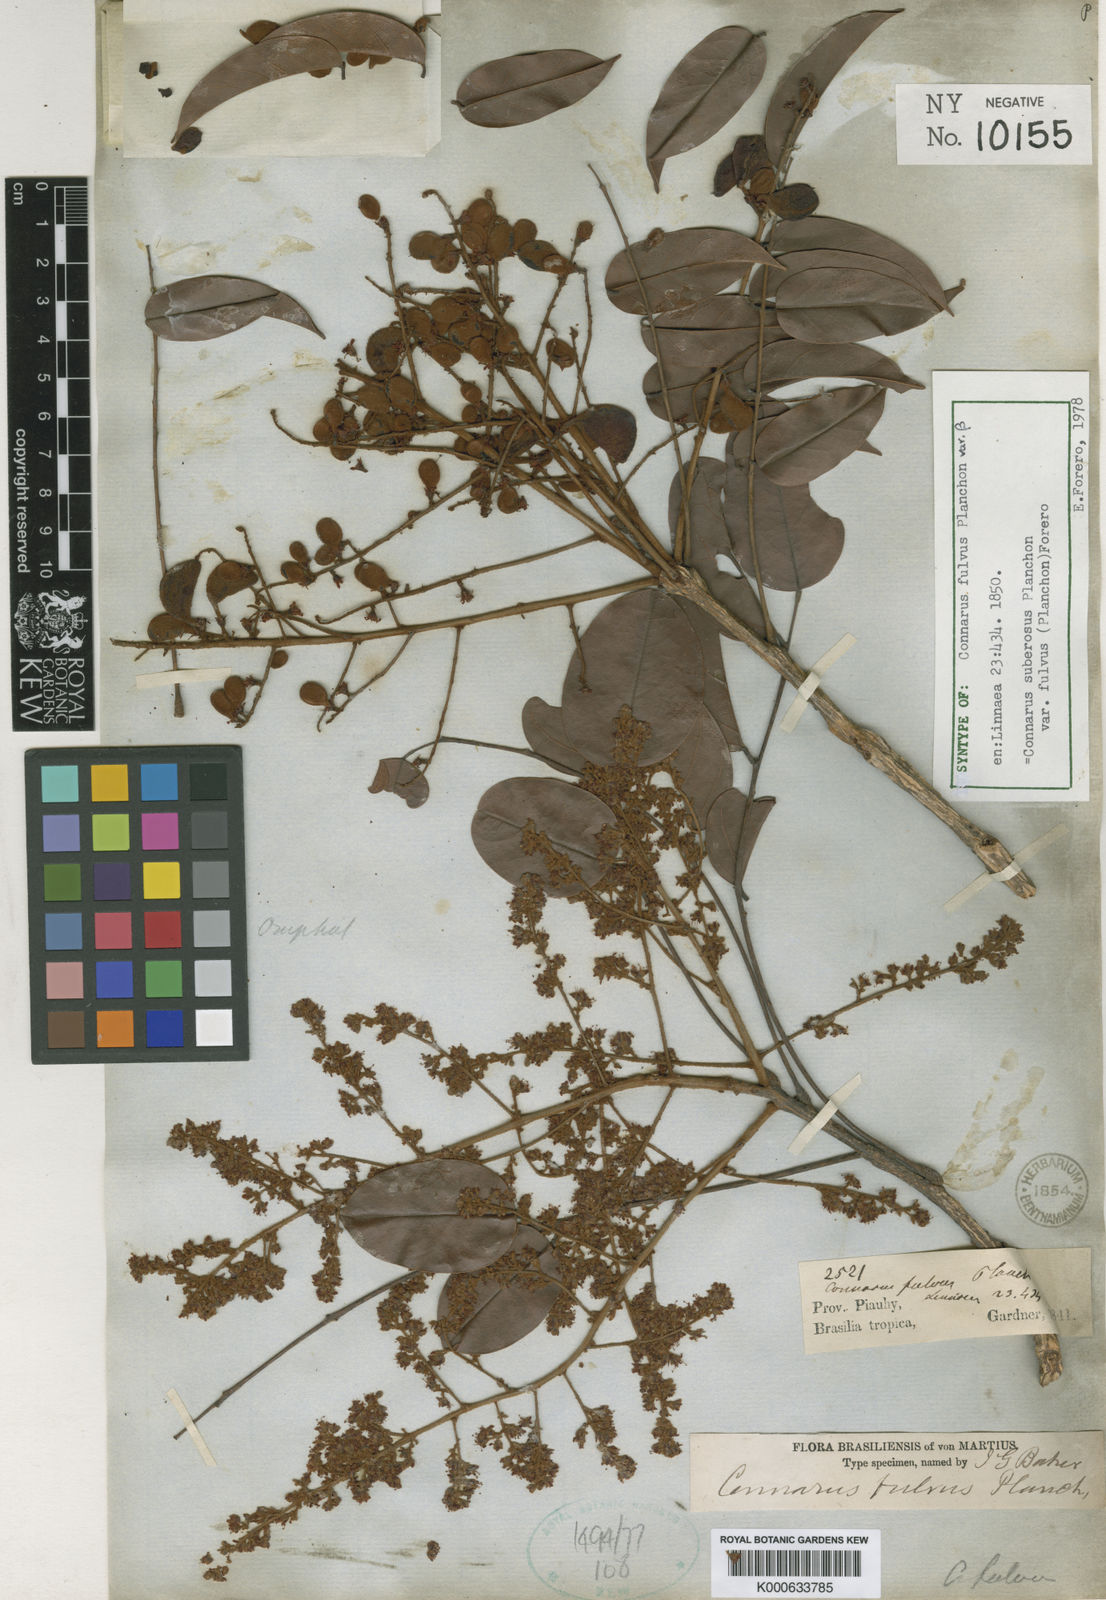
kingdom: Plantae
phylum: Tracheophyta
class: Magnoliopsida
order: Oxalidales
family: Connaraceae
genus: Connarus
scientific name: Connarus suberosus
